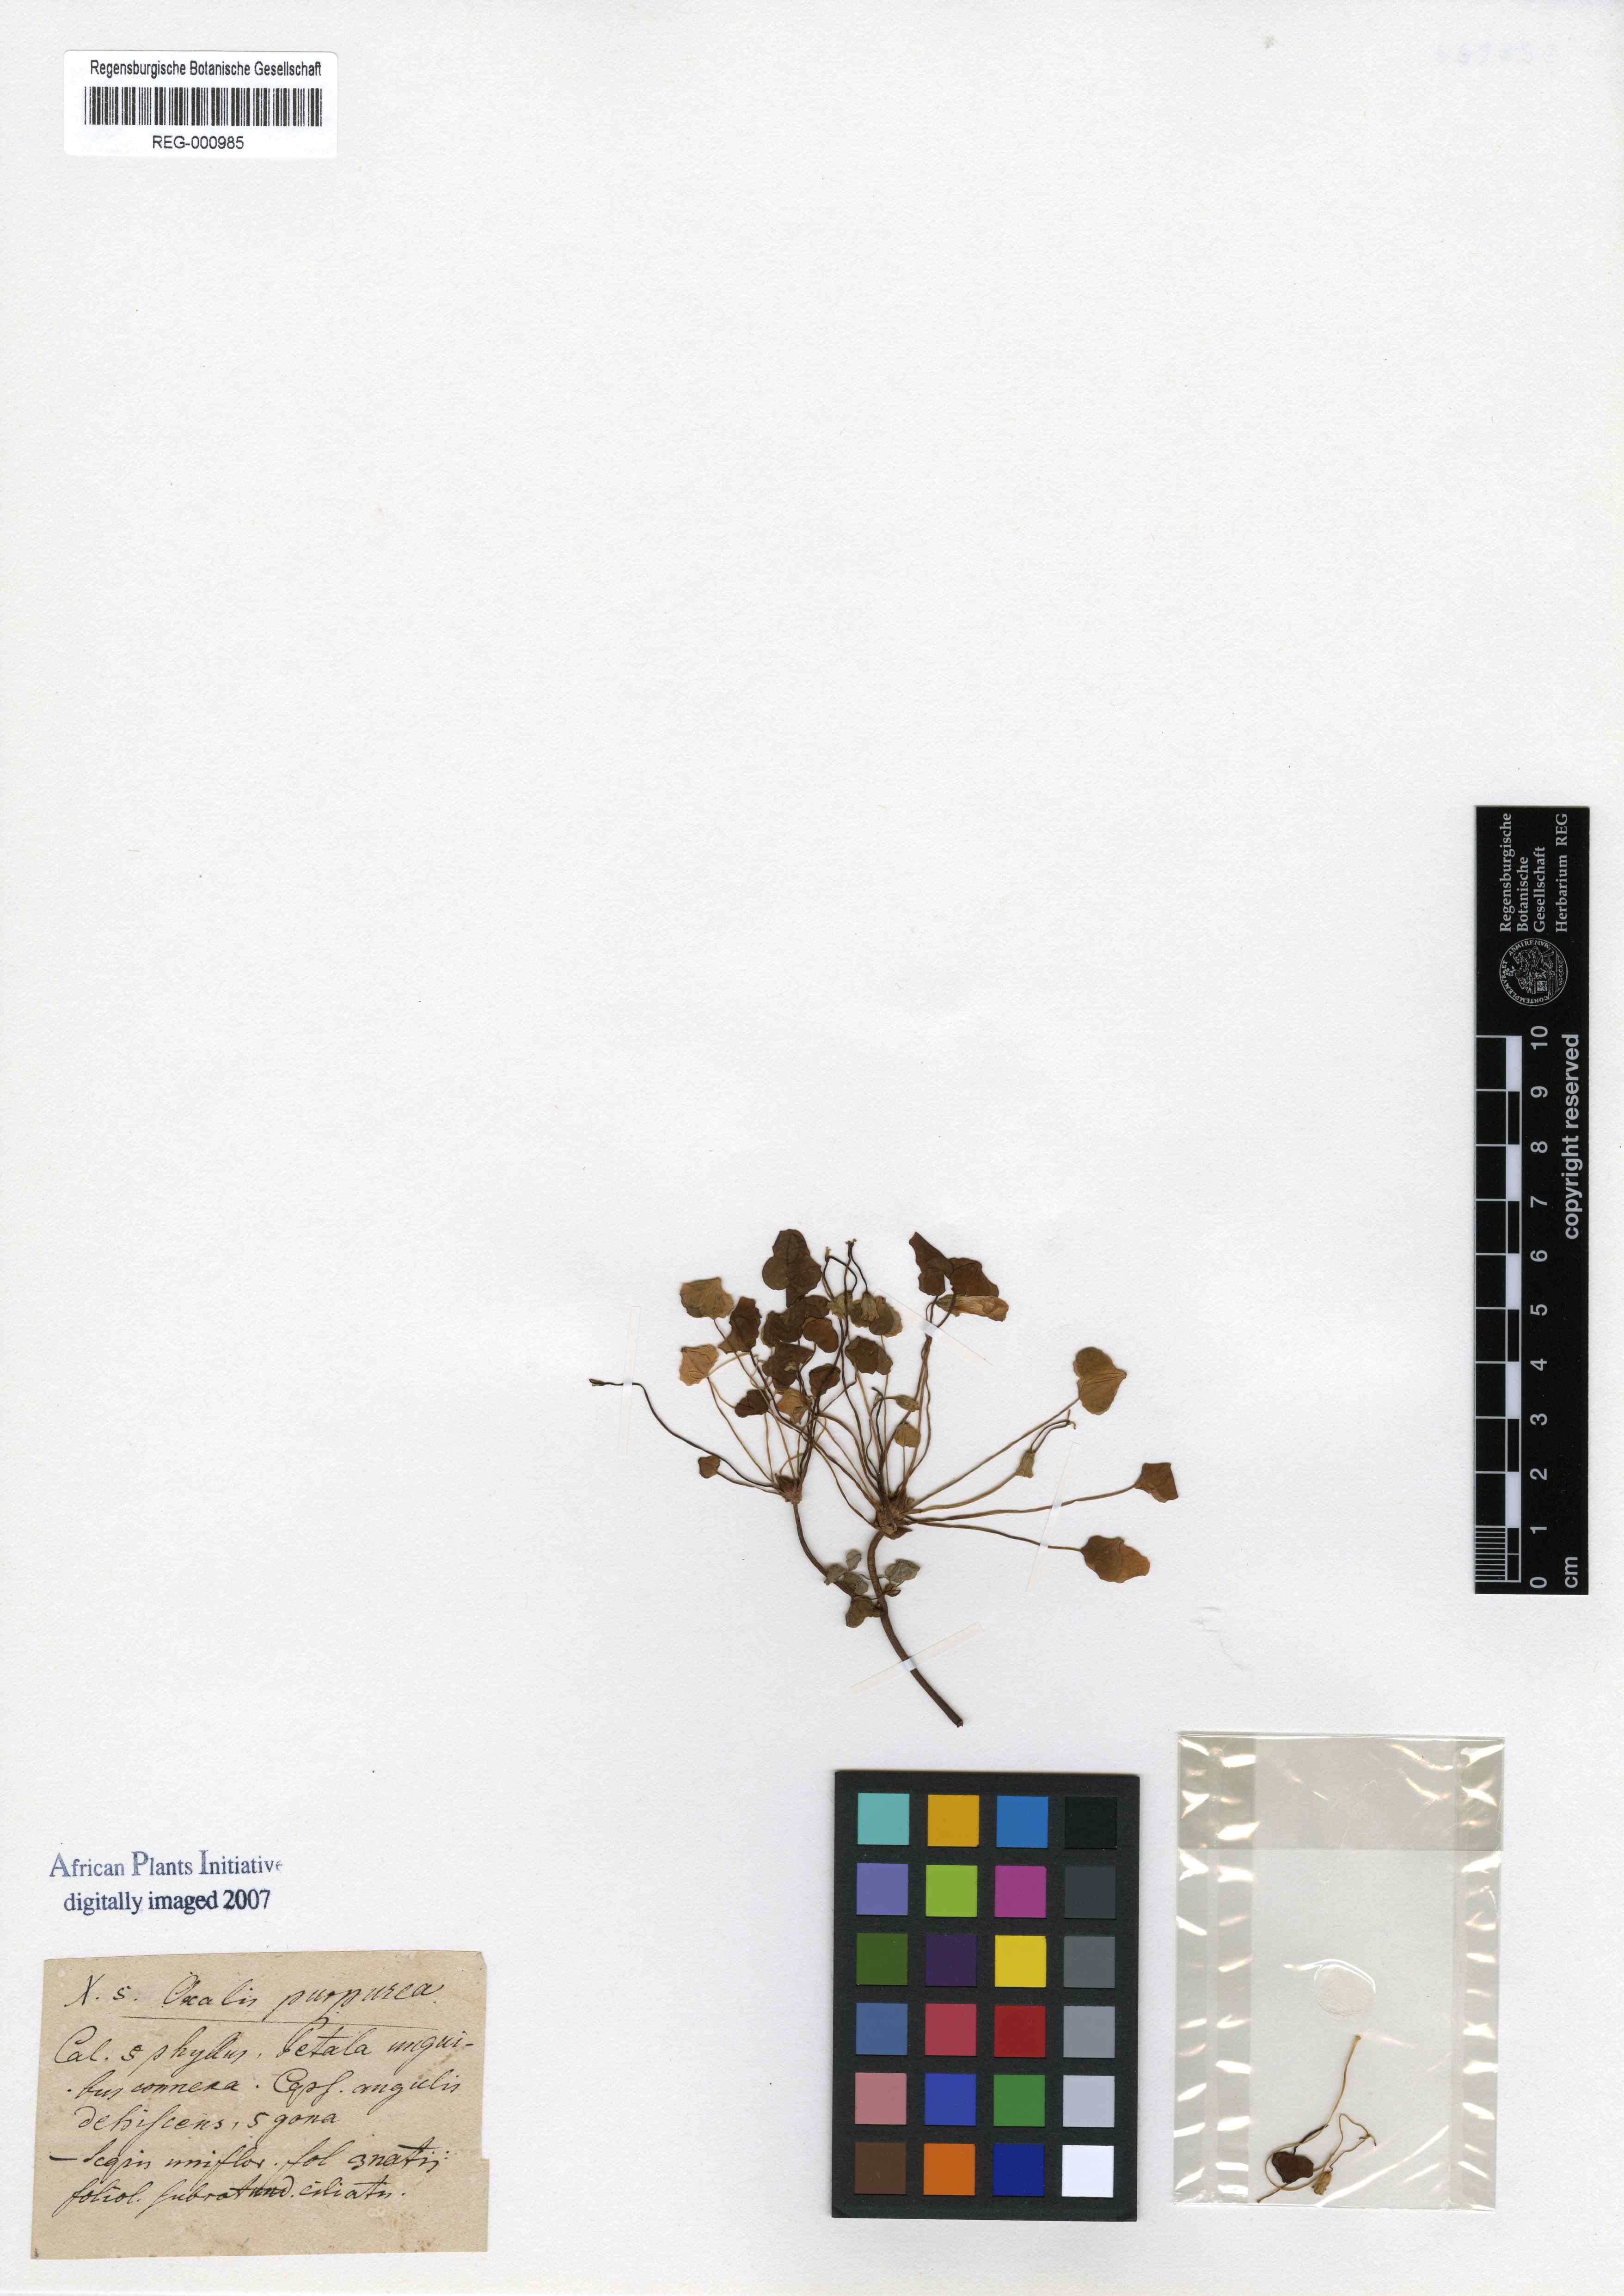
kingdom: Plantae
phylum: Tracheophyta
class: Magnoliopsida
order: Oxalidales
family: Oxalidaceae
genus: Oxalis
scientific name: Oxalis purpurea
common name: Purple woodsorrel
